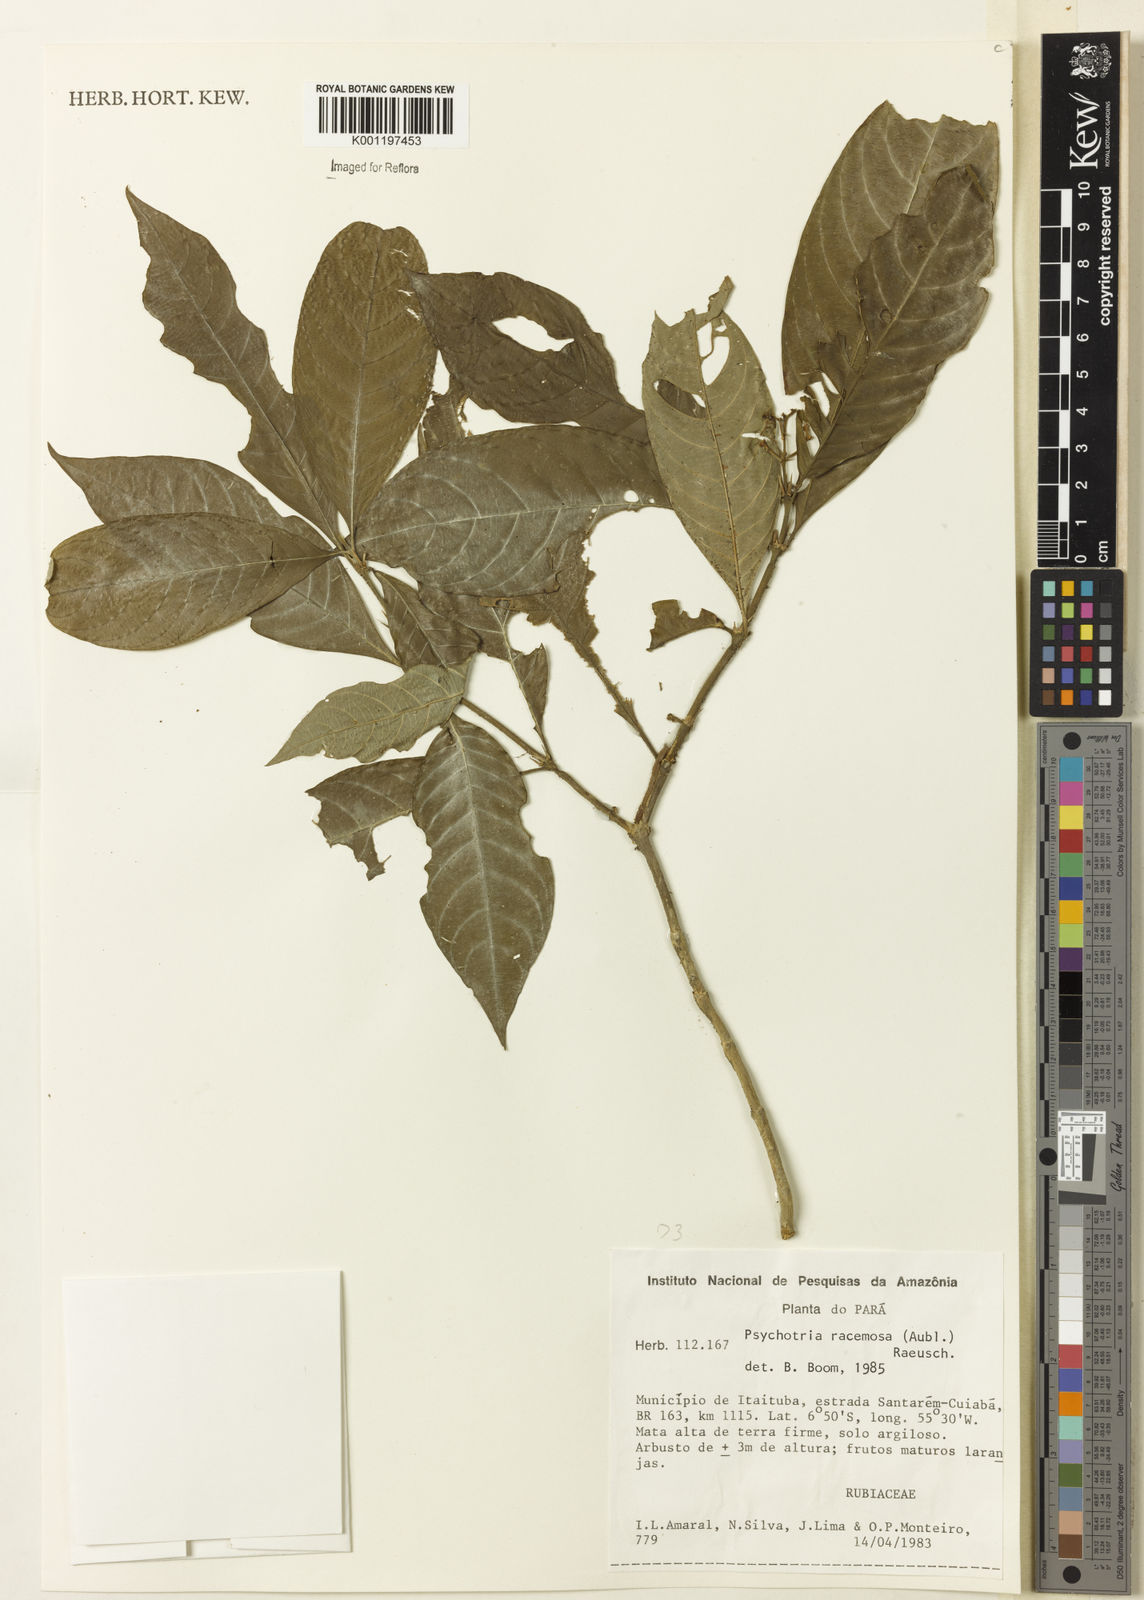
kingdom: Plantae
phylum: Tracheophyta
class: Magnoliopsida
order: Gentianales
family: Rubiaceae
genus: Palicourea
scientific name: Palicourea racemosa
